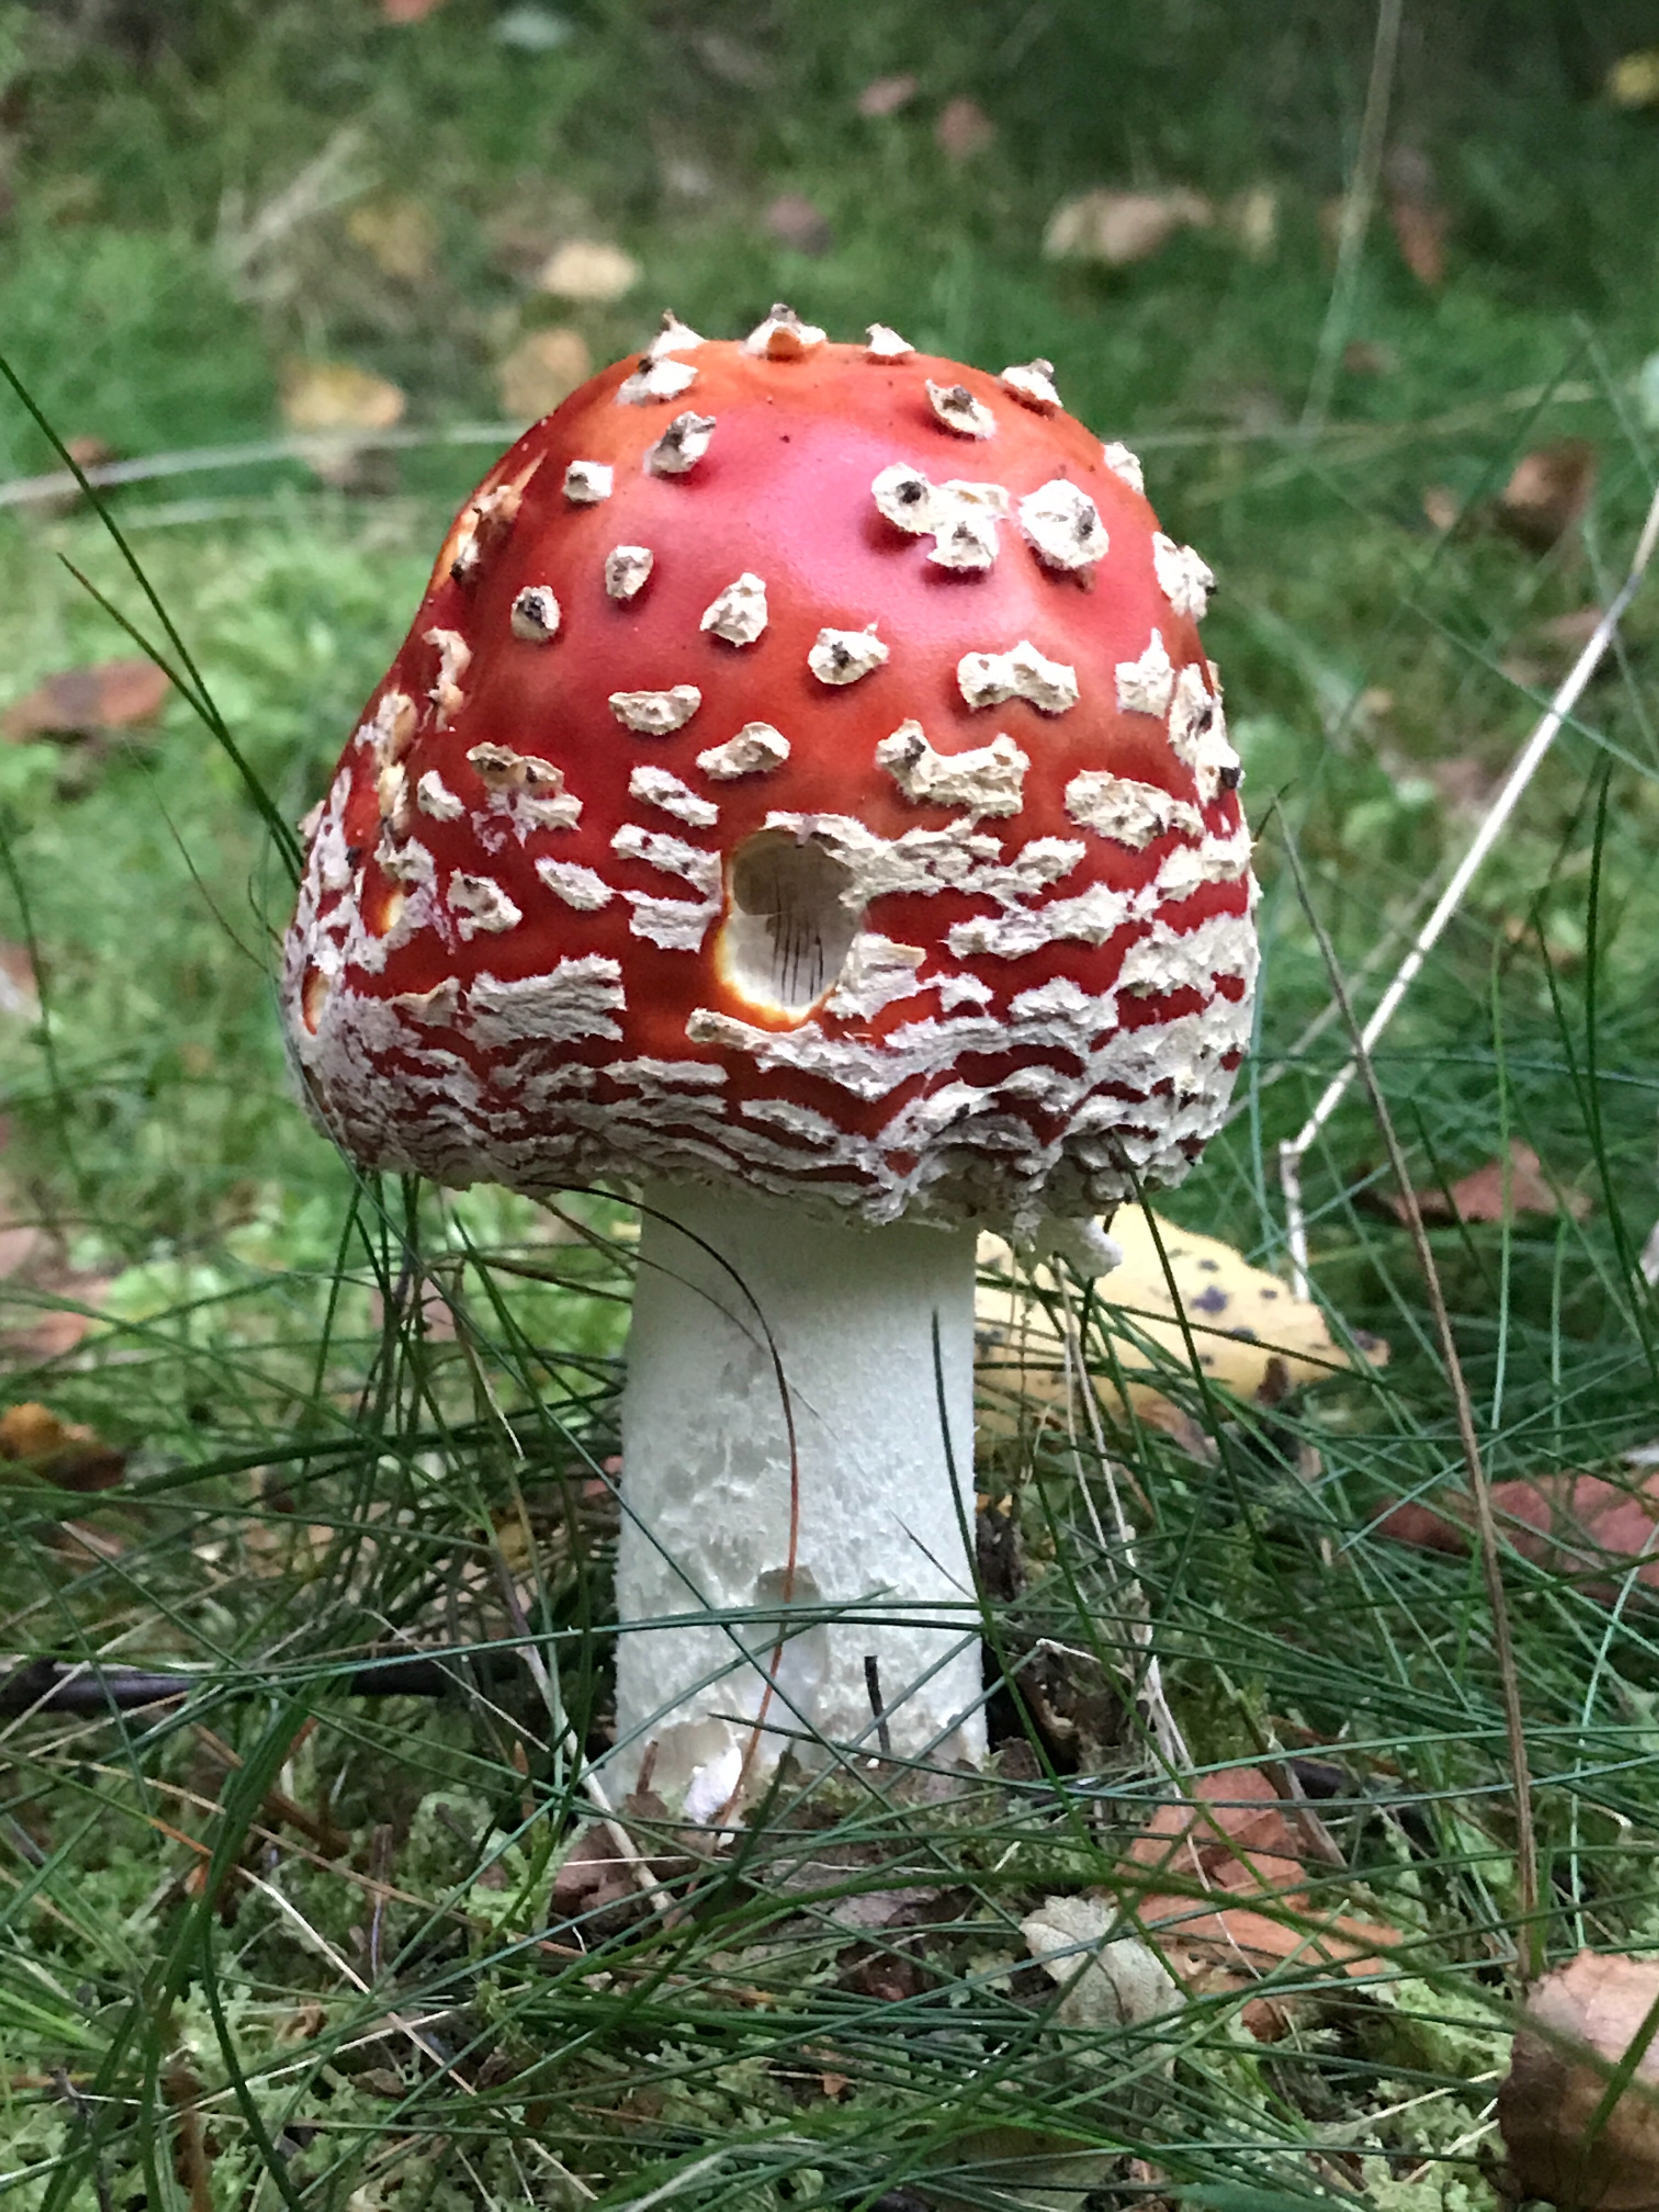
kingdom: Fungi
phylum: Basidiomycota
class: Agaricomycetes
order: Agaricales
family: Amanitaceae
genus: Amanita
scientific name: Amanita muscaria
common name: rød fluesvamp
